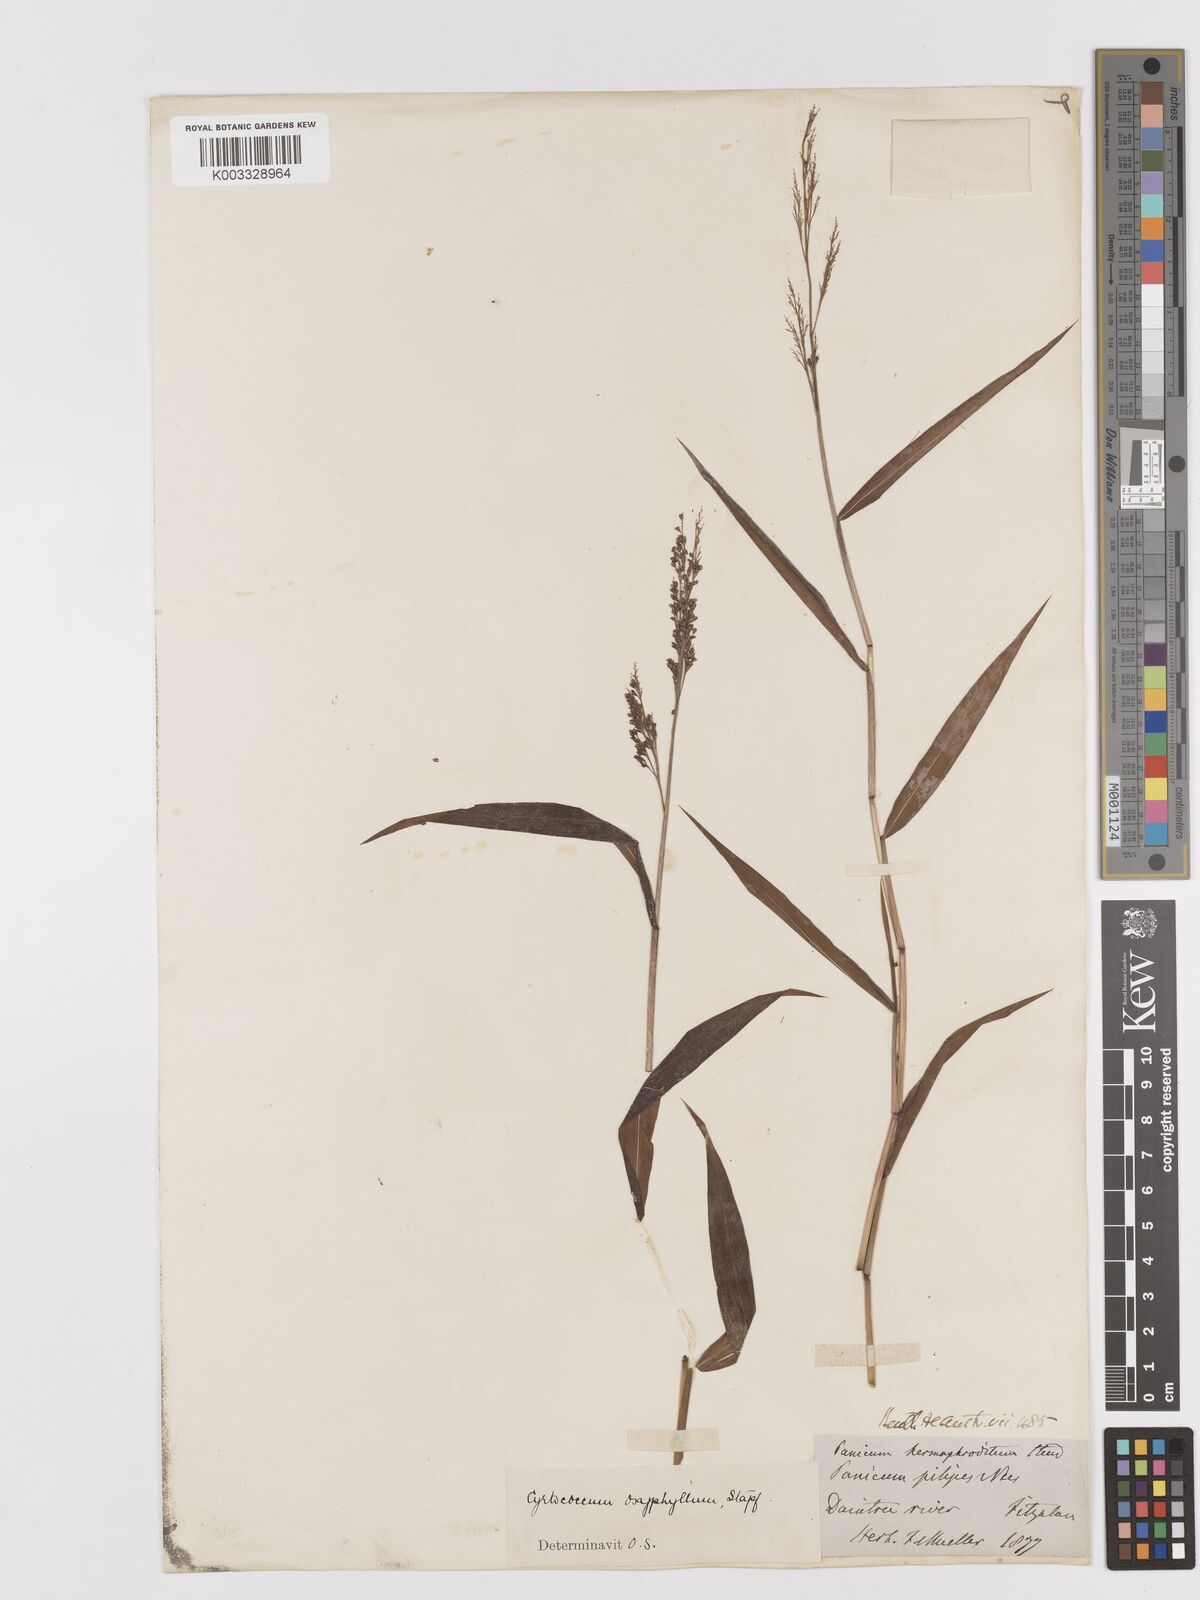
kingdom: Plantae
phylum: Tracheophyta
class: Liliopsida
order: Poales
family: Poaceae
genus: Cyrtococcum
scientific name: Cyrtococcum oxyphyllum
